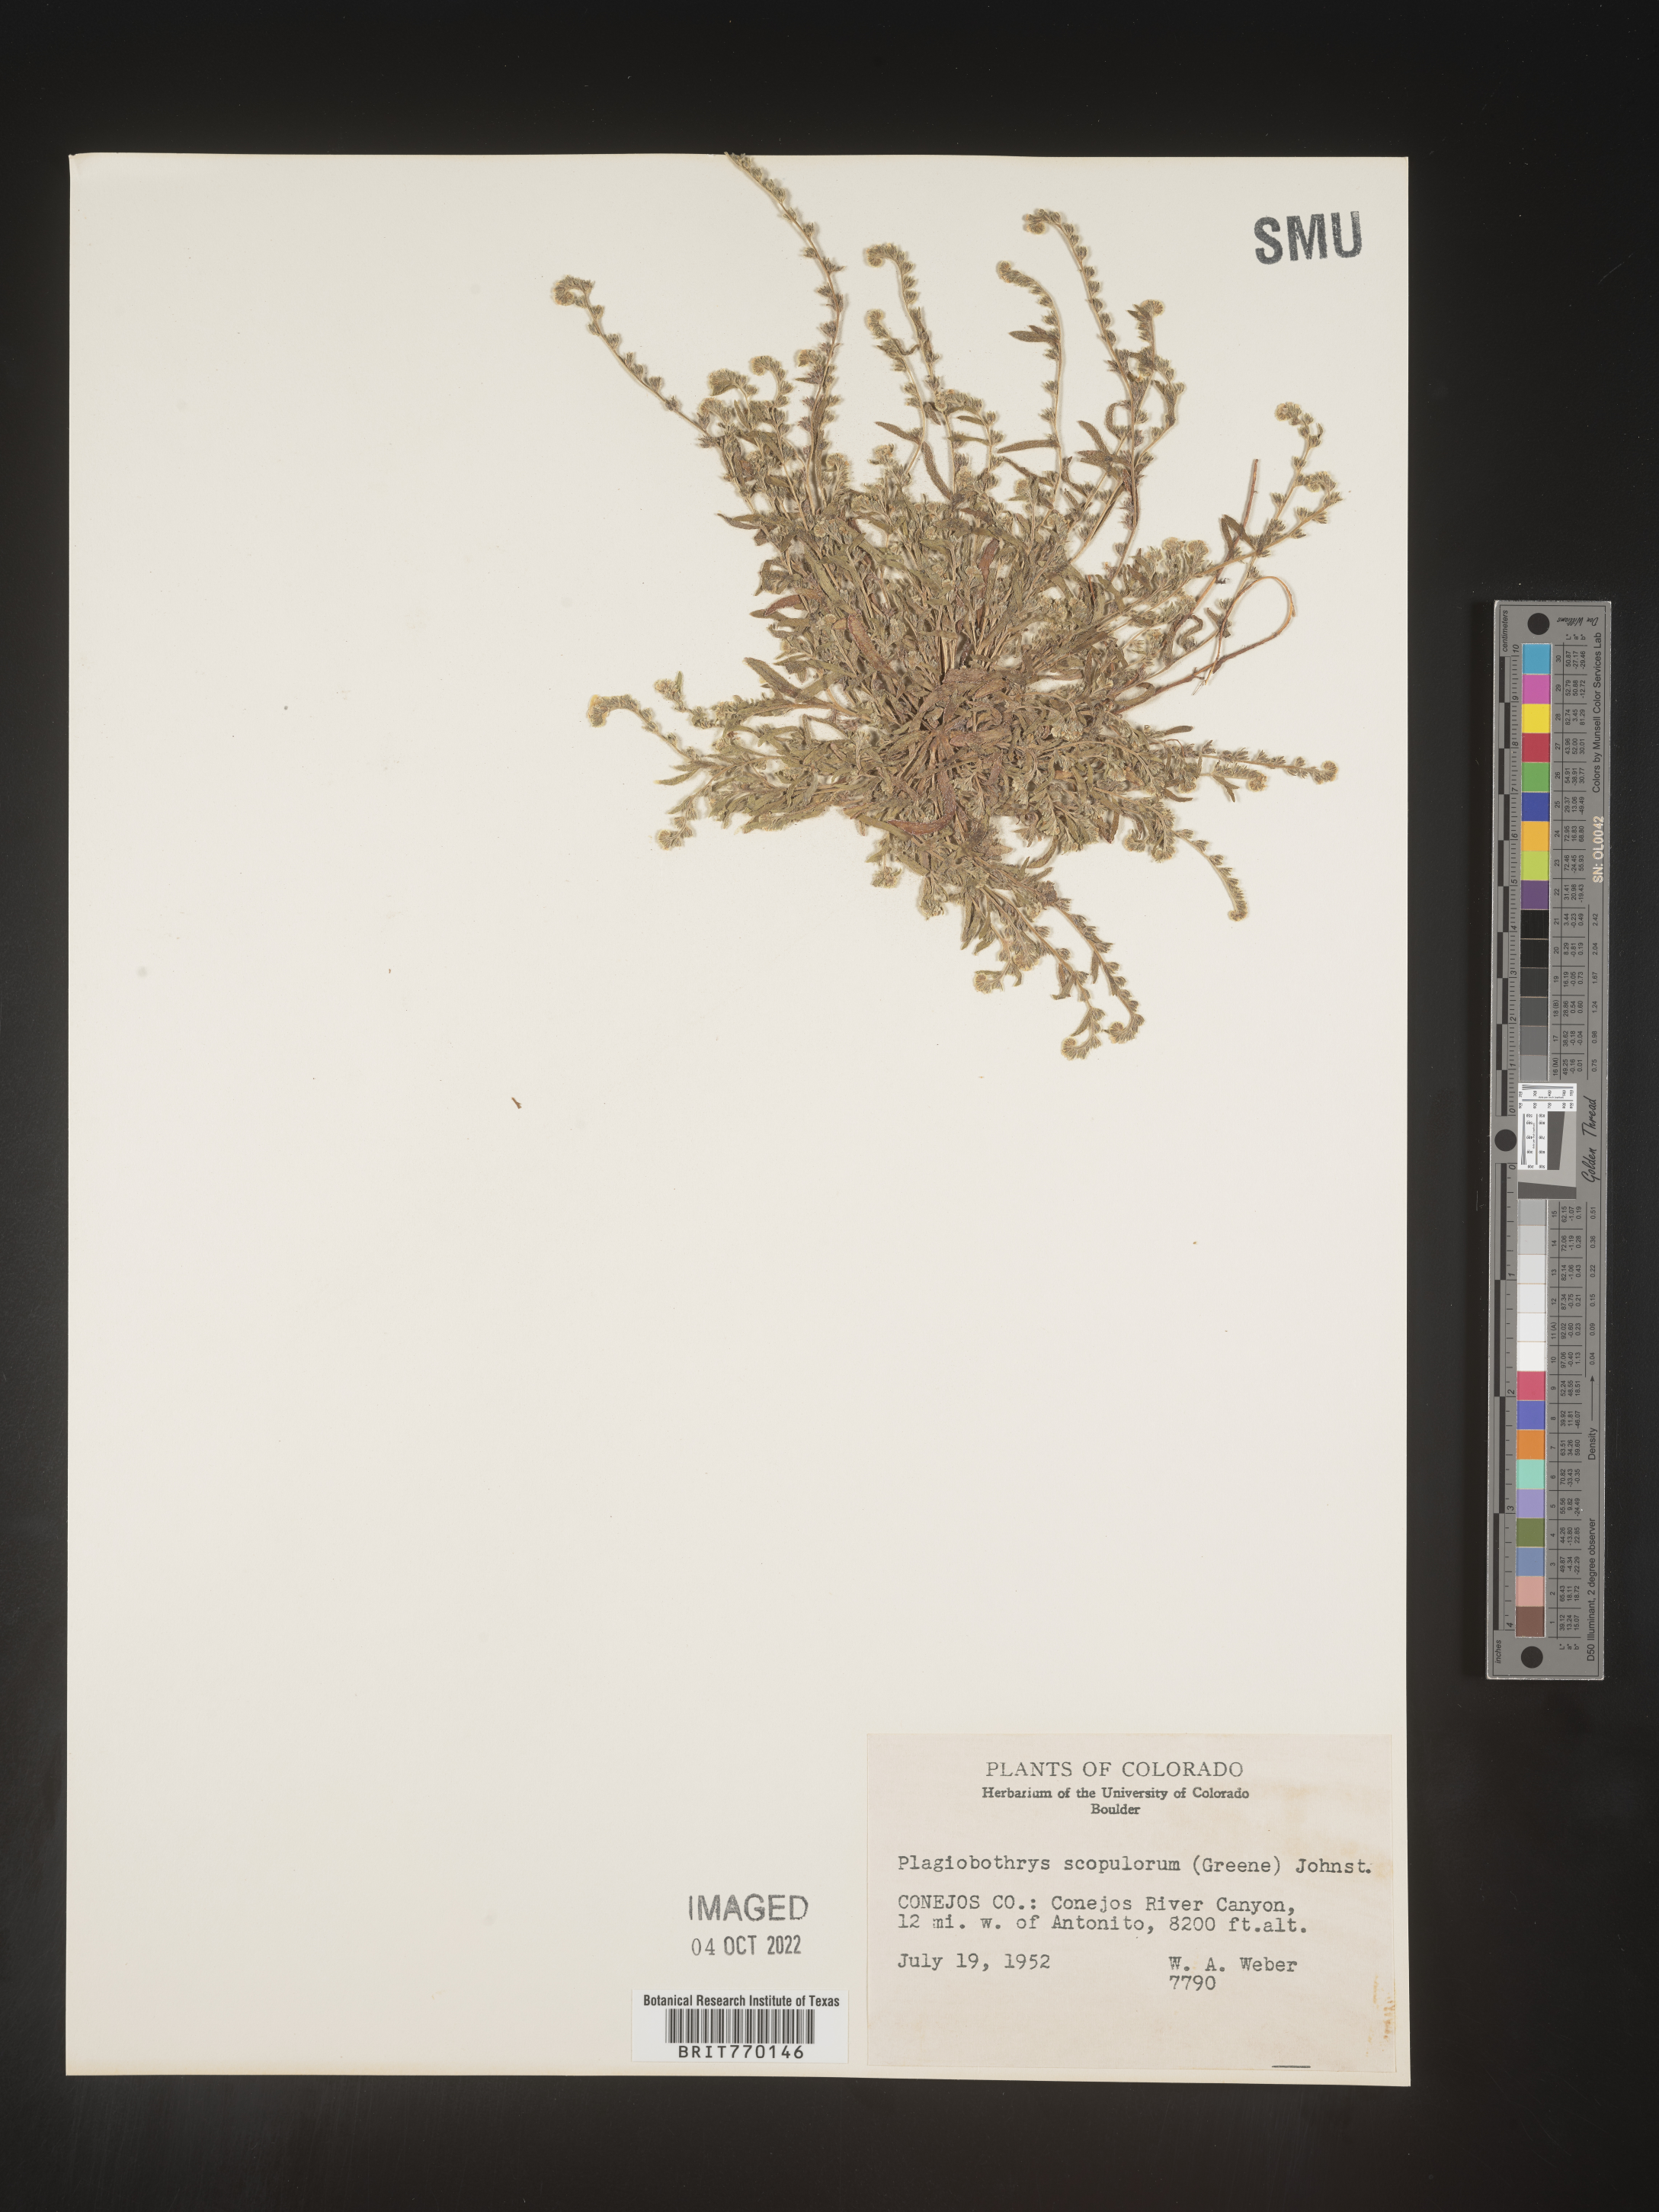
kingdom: Plantae
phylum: Tracheophyta
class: Magnoliopsida
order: Boraginales
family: Boraginaceae
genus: Plagiobothrys
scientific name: Plagiobothrys
